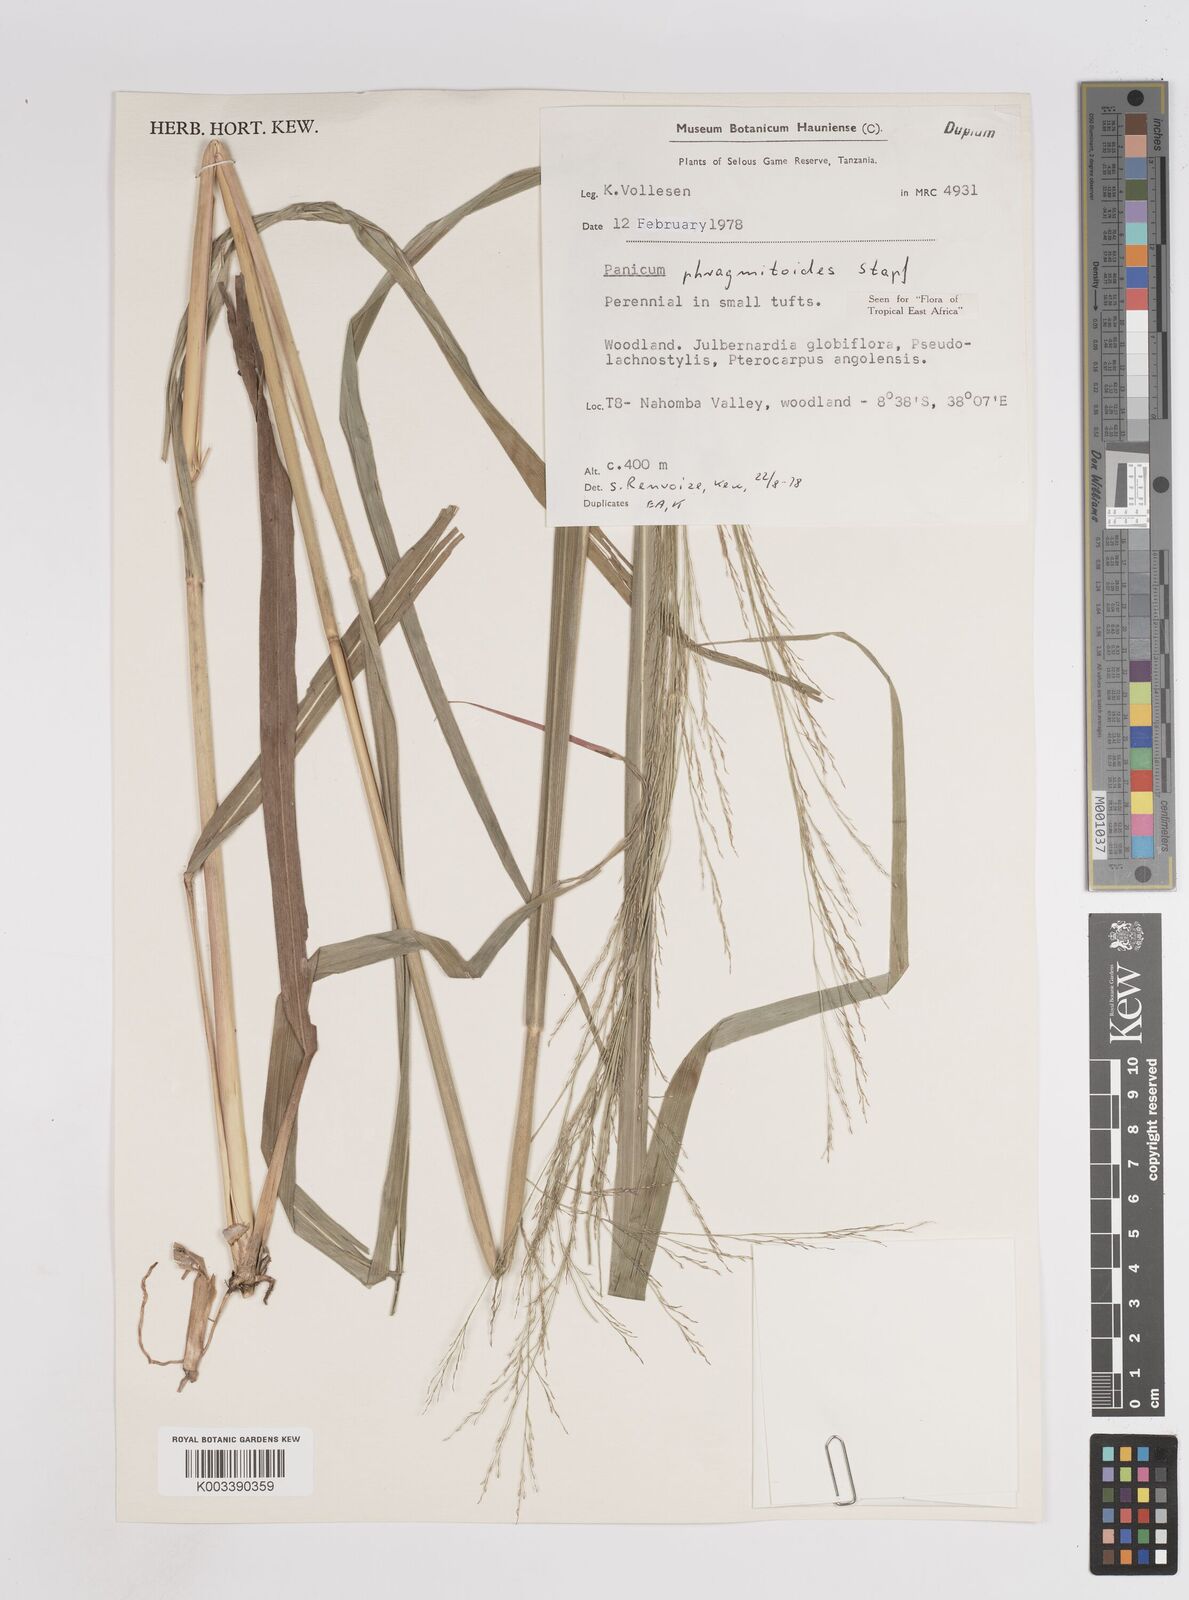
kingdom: Plantae
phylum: Tracheophyta
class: Liliopsida
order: Poales
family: Poaceae
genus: Panicum
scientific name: Panicum phragmitoides
